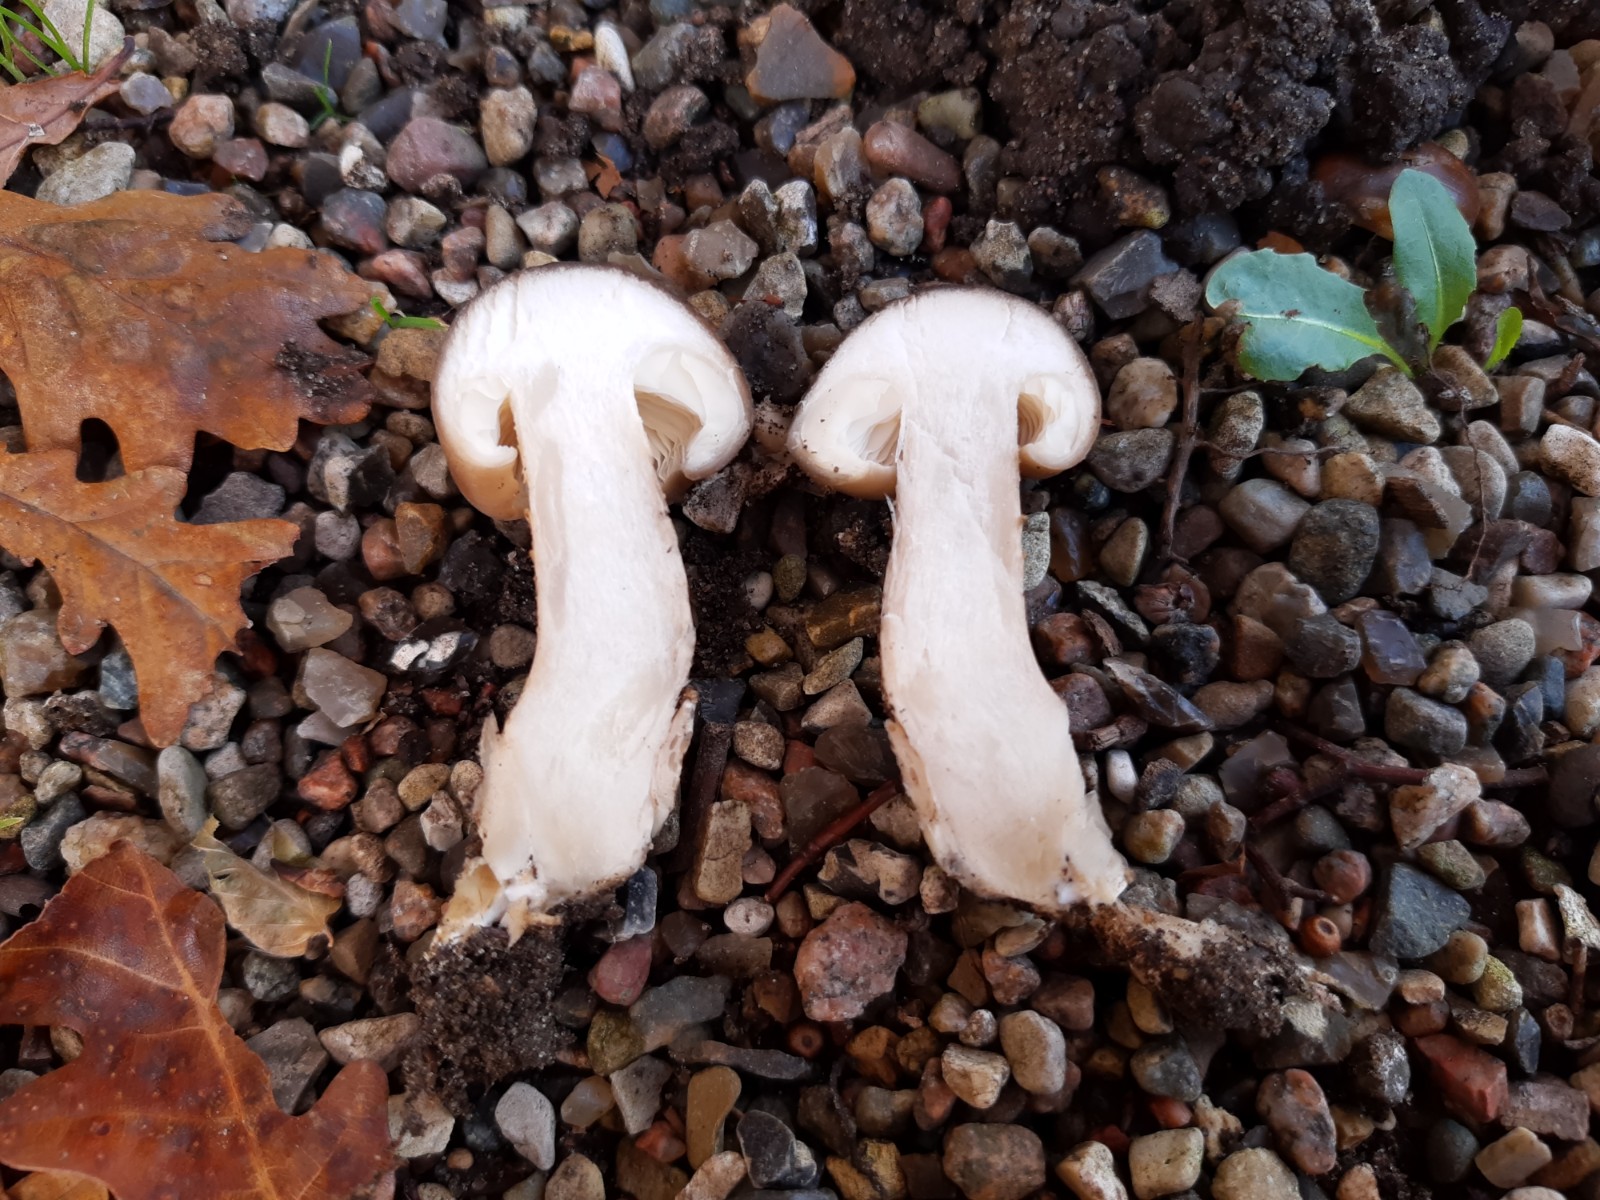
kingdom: Fungi
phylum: Basidiomycota
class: Agaricomycetes
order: Agaricales
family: Lyophyllaceae
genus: Lyophyllum
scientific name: Lyophyllum decastes
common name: røggrå gråblad
